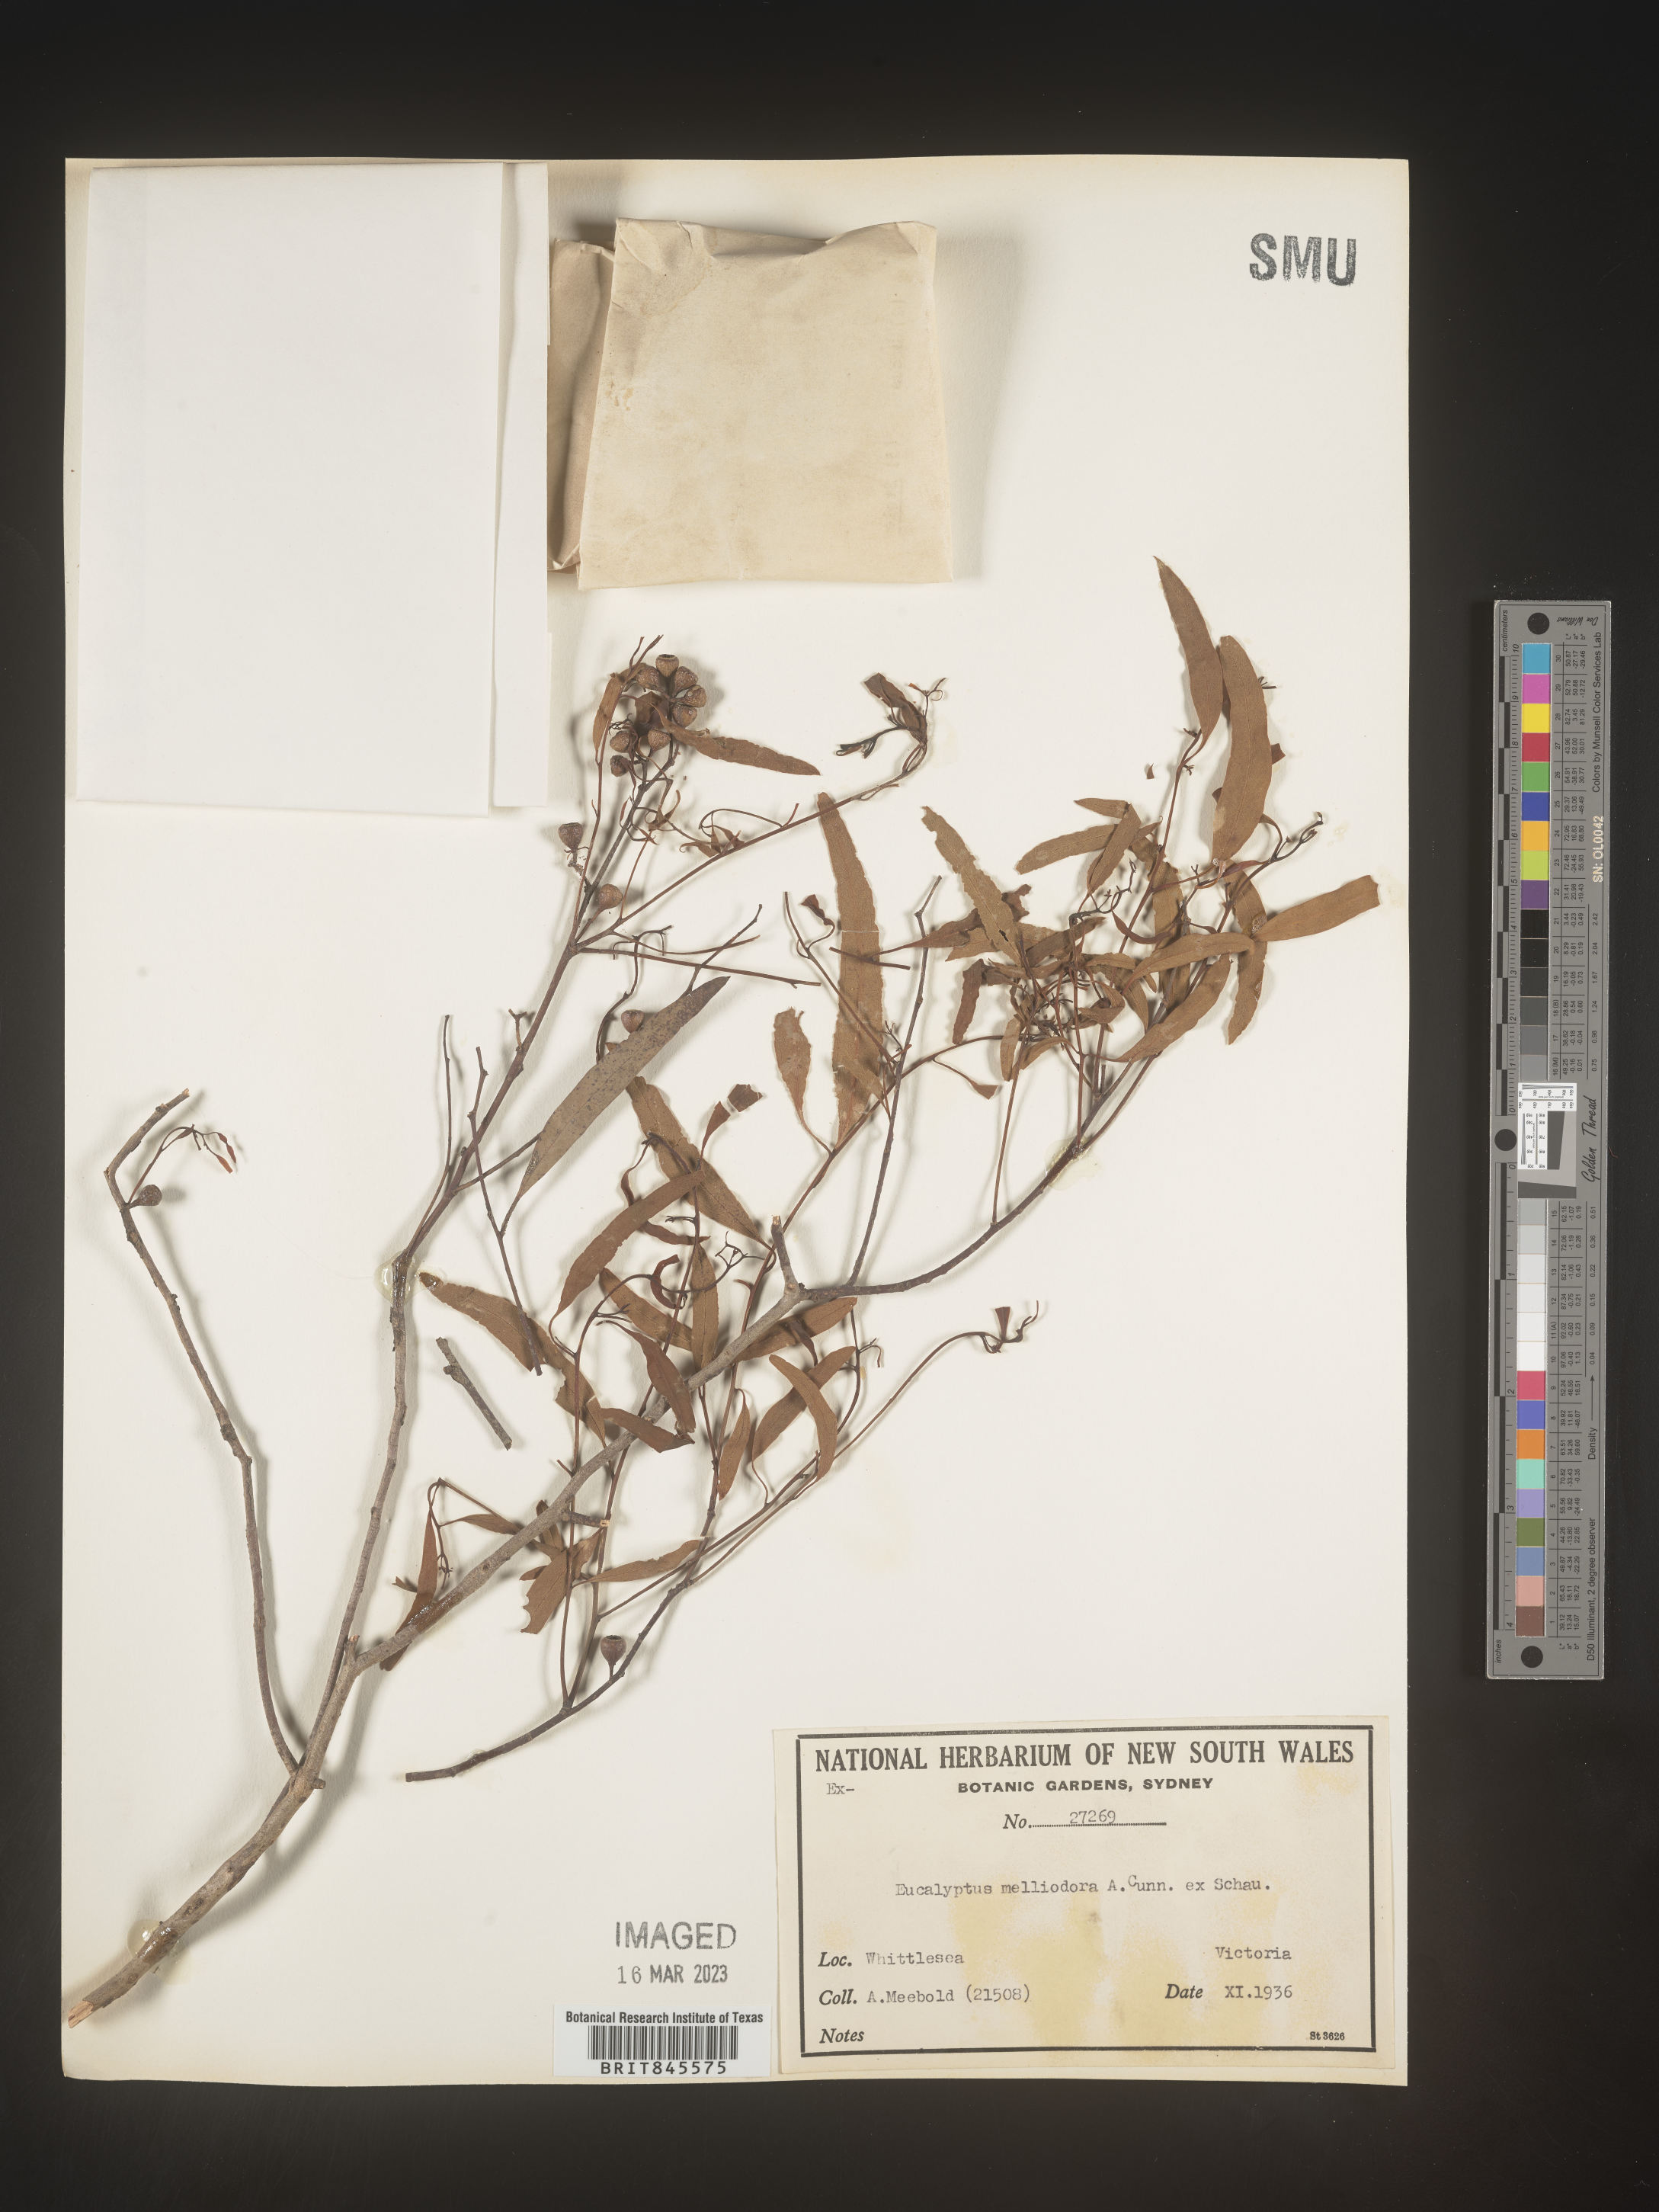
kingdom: Plantae
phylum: Tracheophyta
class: Magnoliopsida
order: Myrtales
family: Myrtaceae
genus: Eucalyptus
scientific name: Eucalyptus
